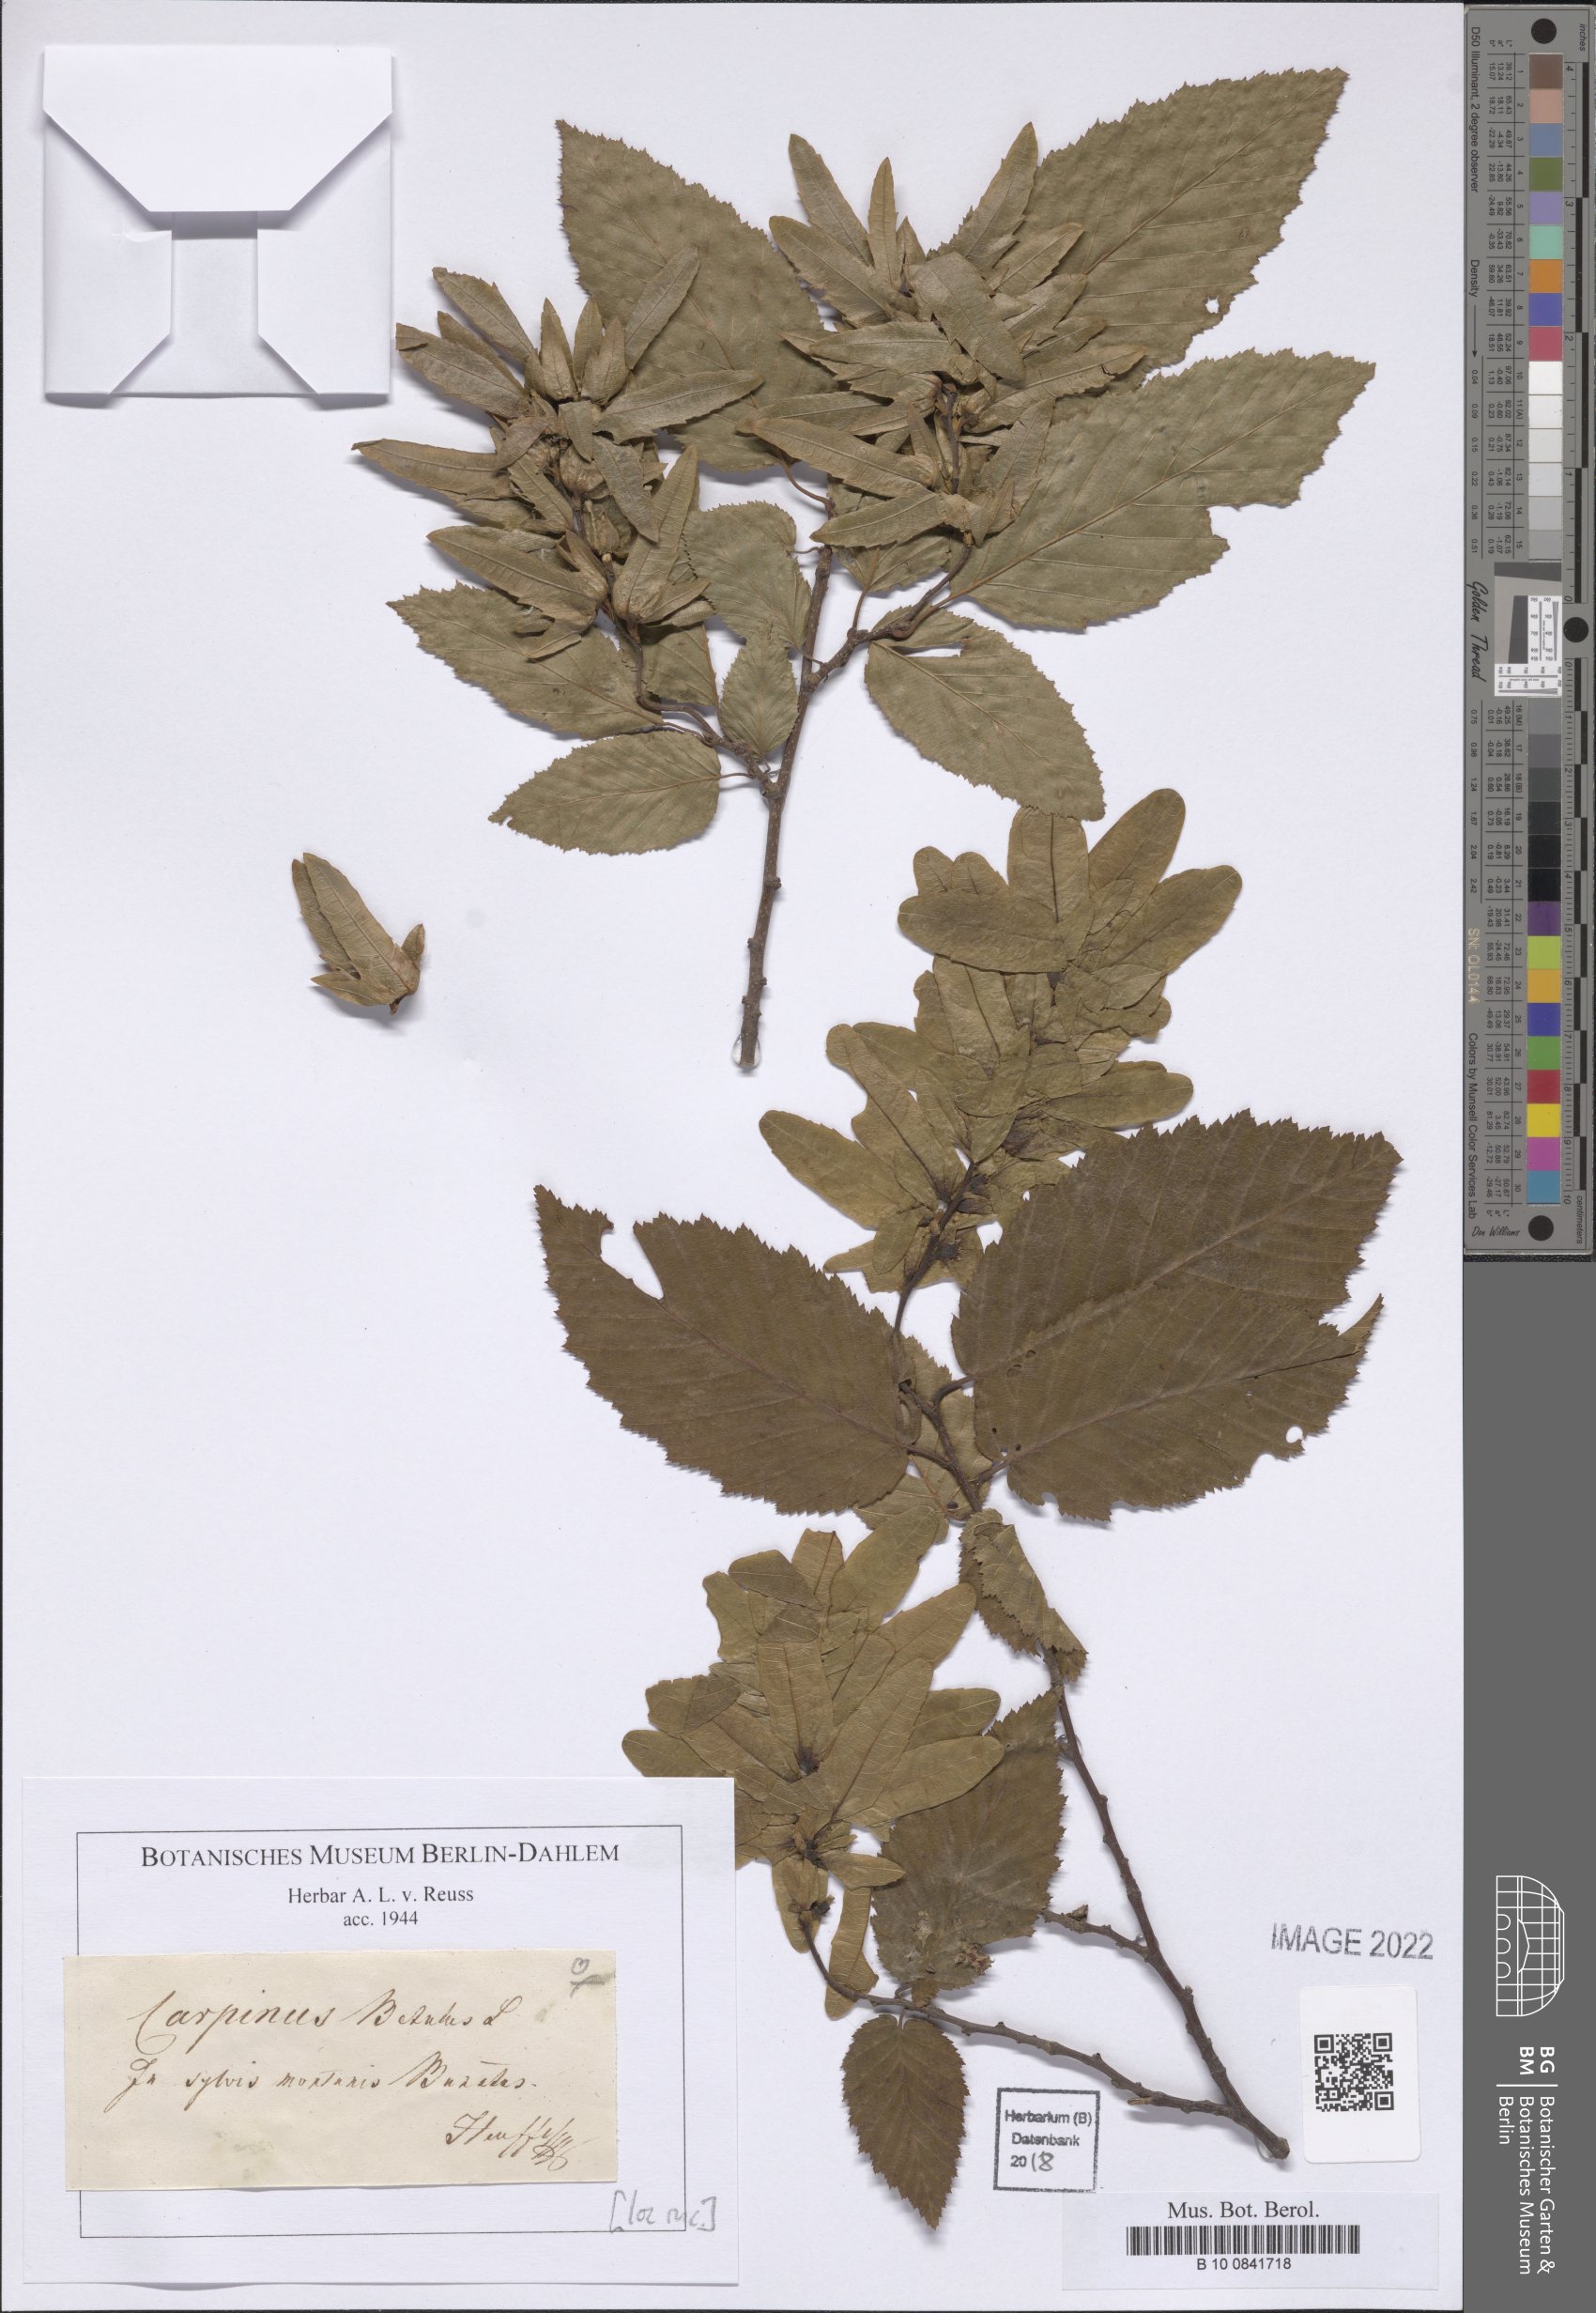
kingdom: Plantae
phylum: Tracheophyta
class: Magnoliopsida
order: Fagales
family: Betulaceae
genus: Carpinus
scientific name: Carpinus betulus
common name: Hornbeam
